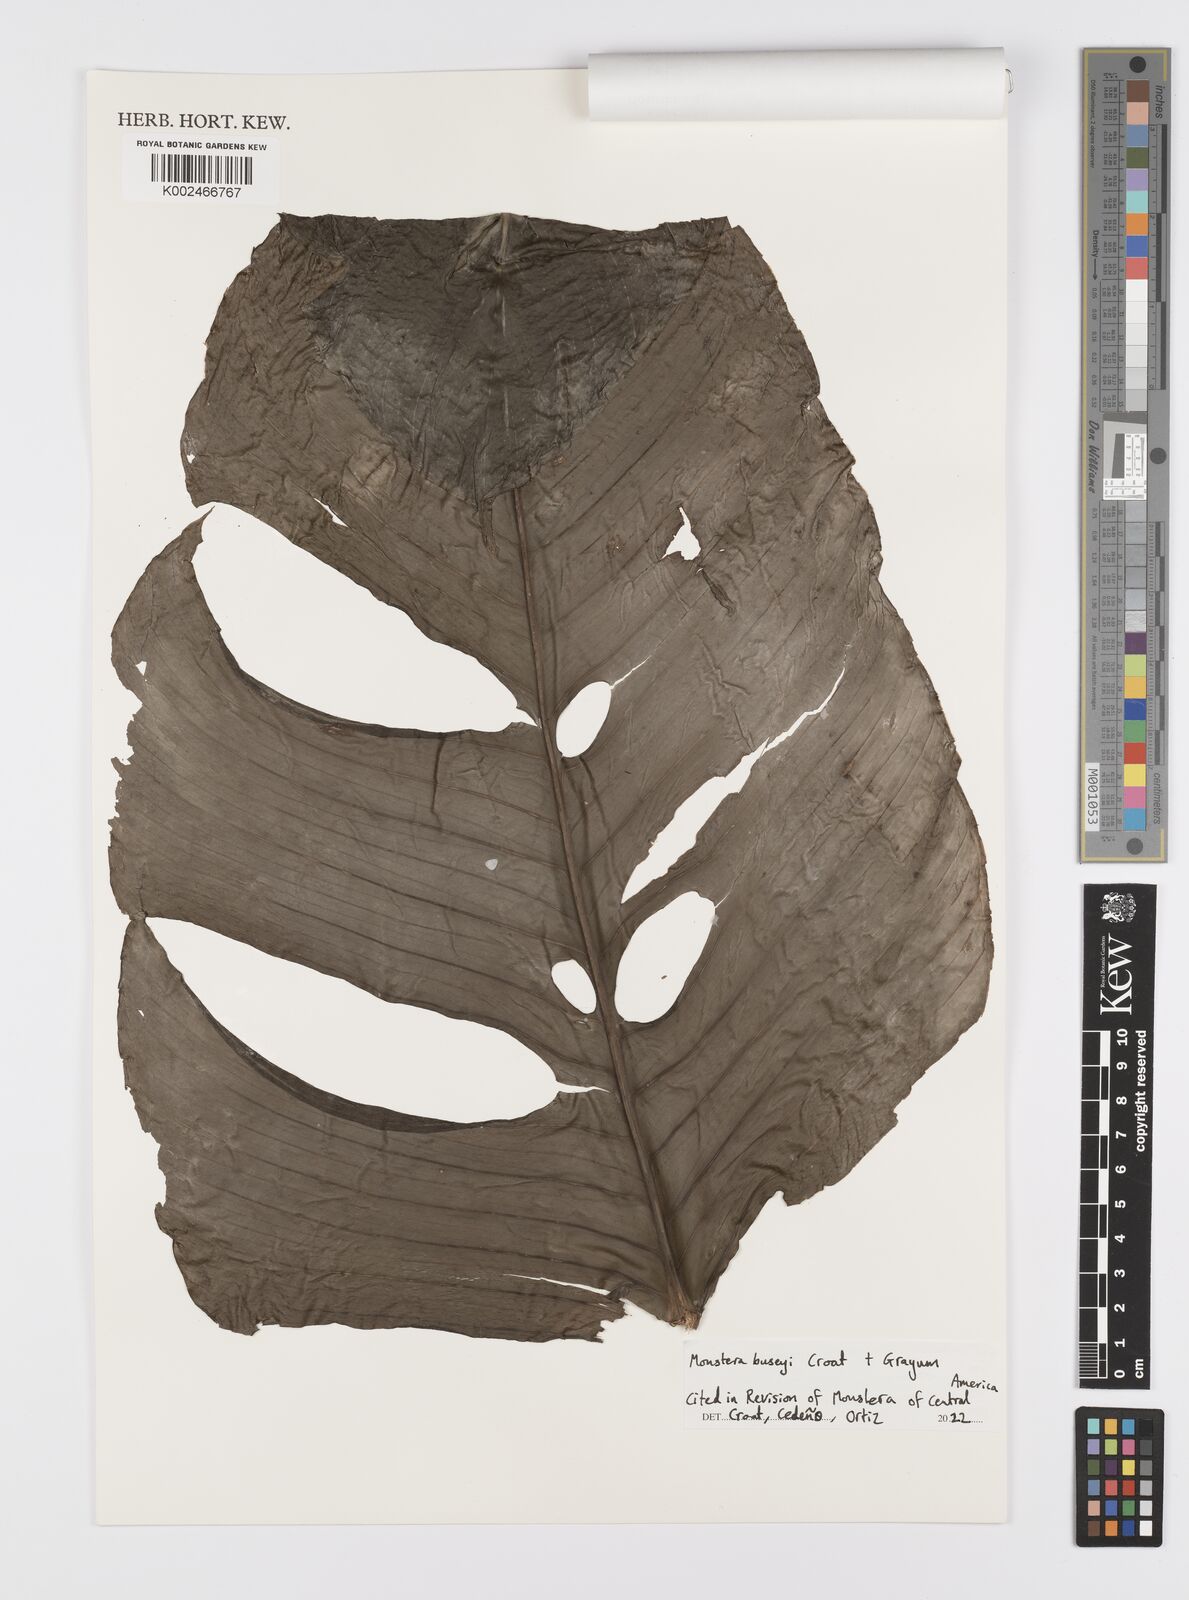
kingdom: Plantae
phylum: Tracheophyta
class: Liliopsida
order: Alismatales
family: Araceae
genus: Monstera
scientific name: Monstera buseyi
